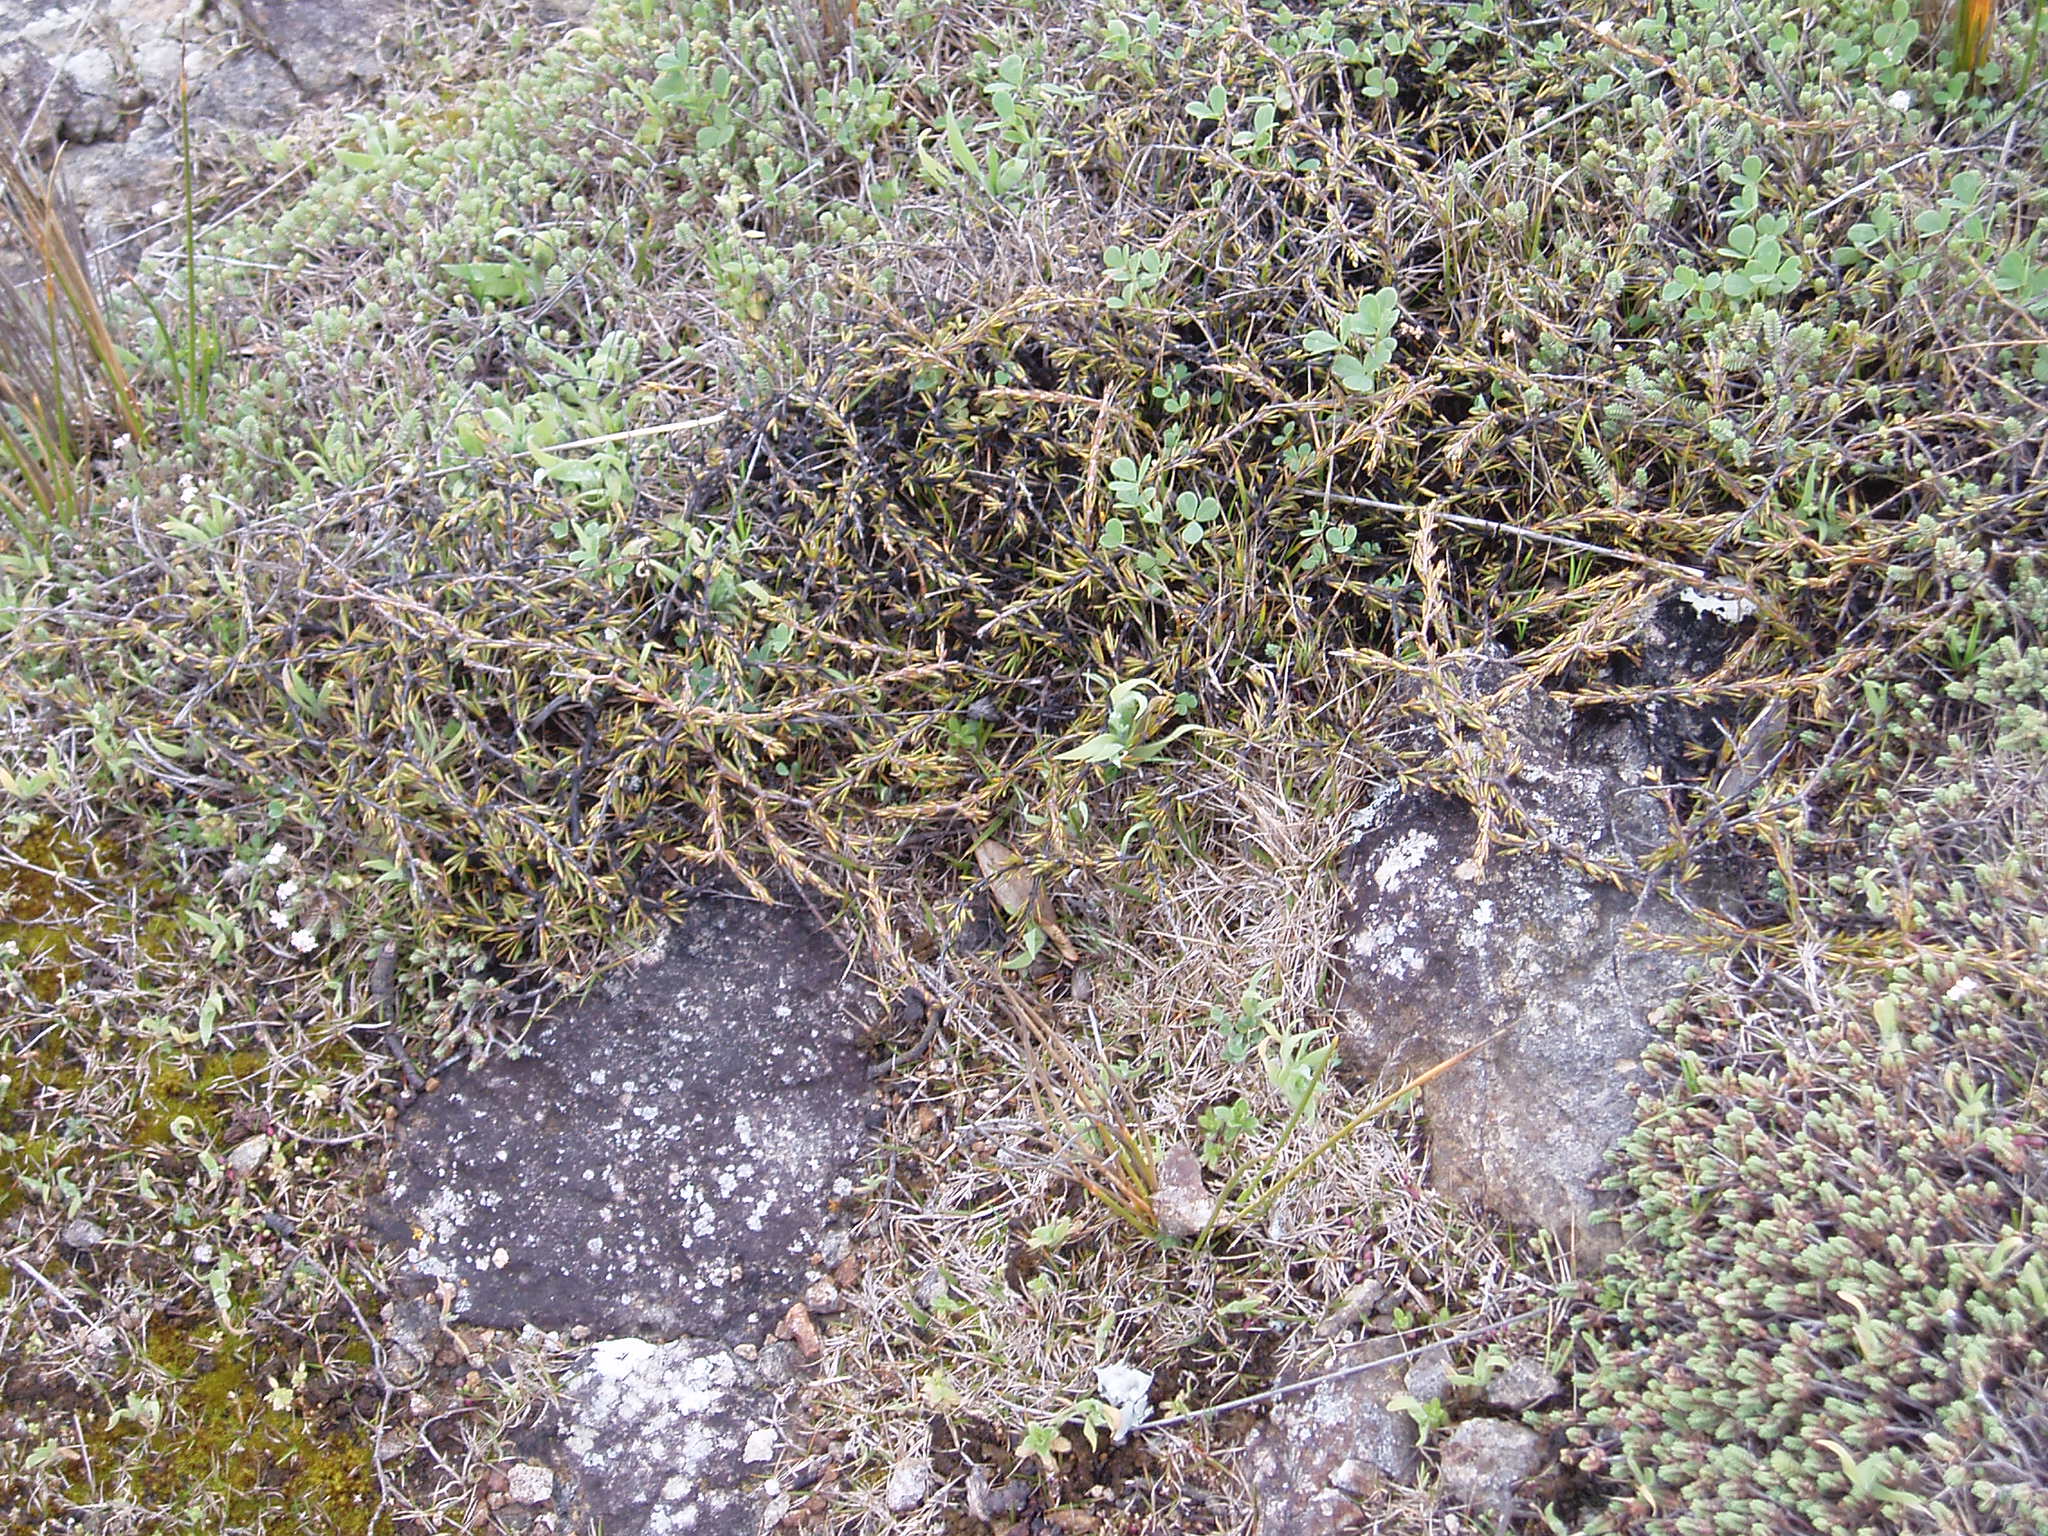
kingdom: Plantae
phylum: Tracheophyta
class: Magnoliopsida
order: Gentianales
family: Rubiaceae
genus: Coprosma
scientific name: Coprosma acerosa
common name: Sand coprosma
